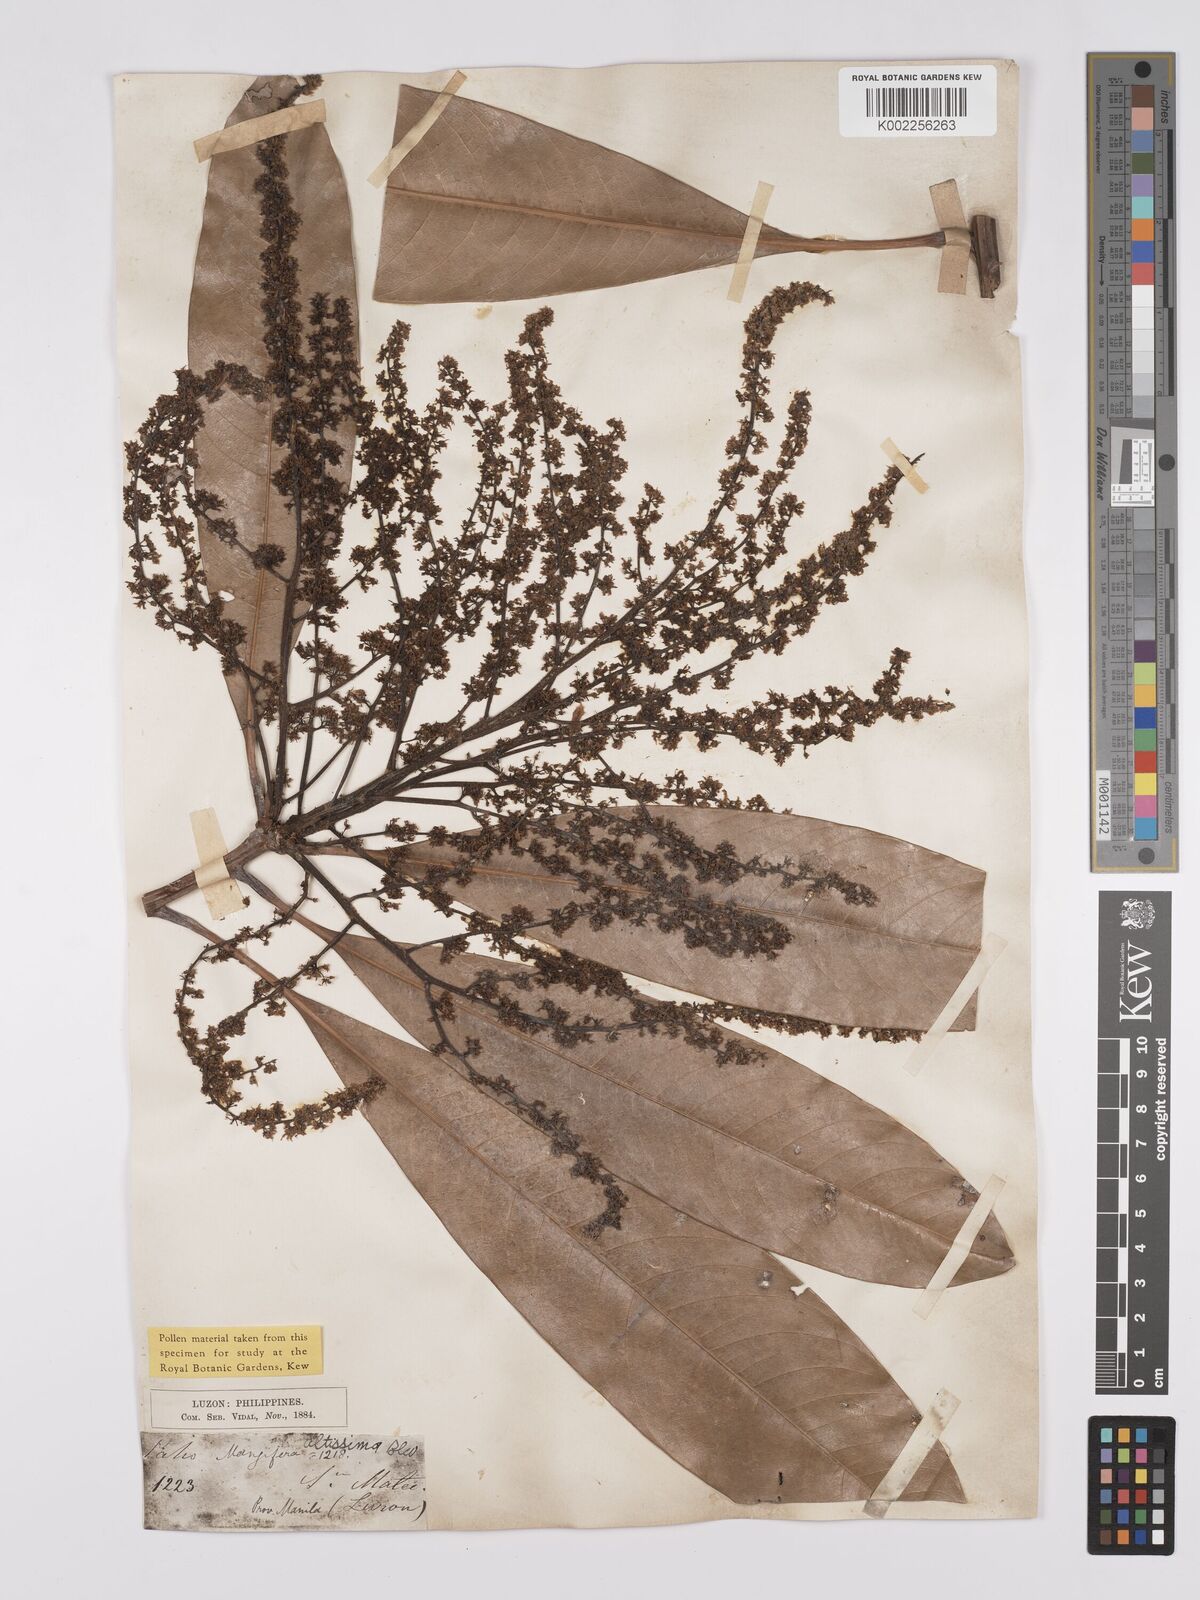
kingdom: Plantae
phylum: Tracheophyta
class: Magnoliopsida
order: Sapindales
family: Anacardiaceae
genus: Mangifera
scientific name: Mangifera altissima
